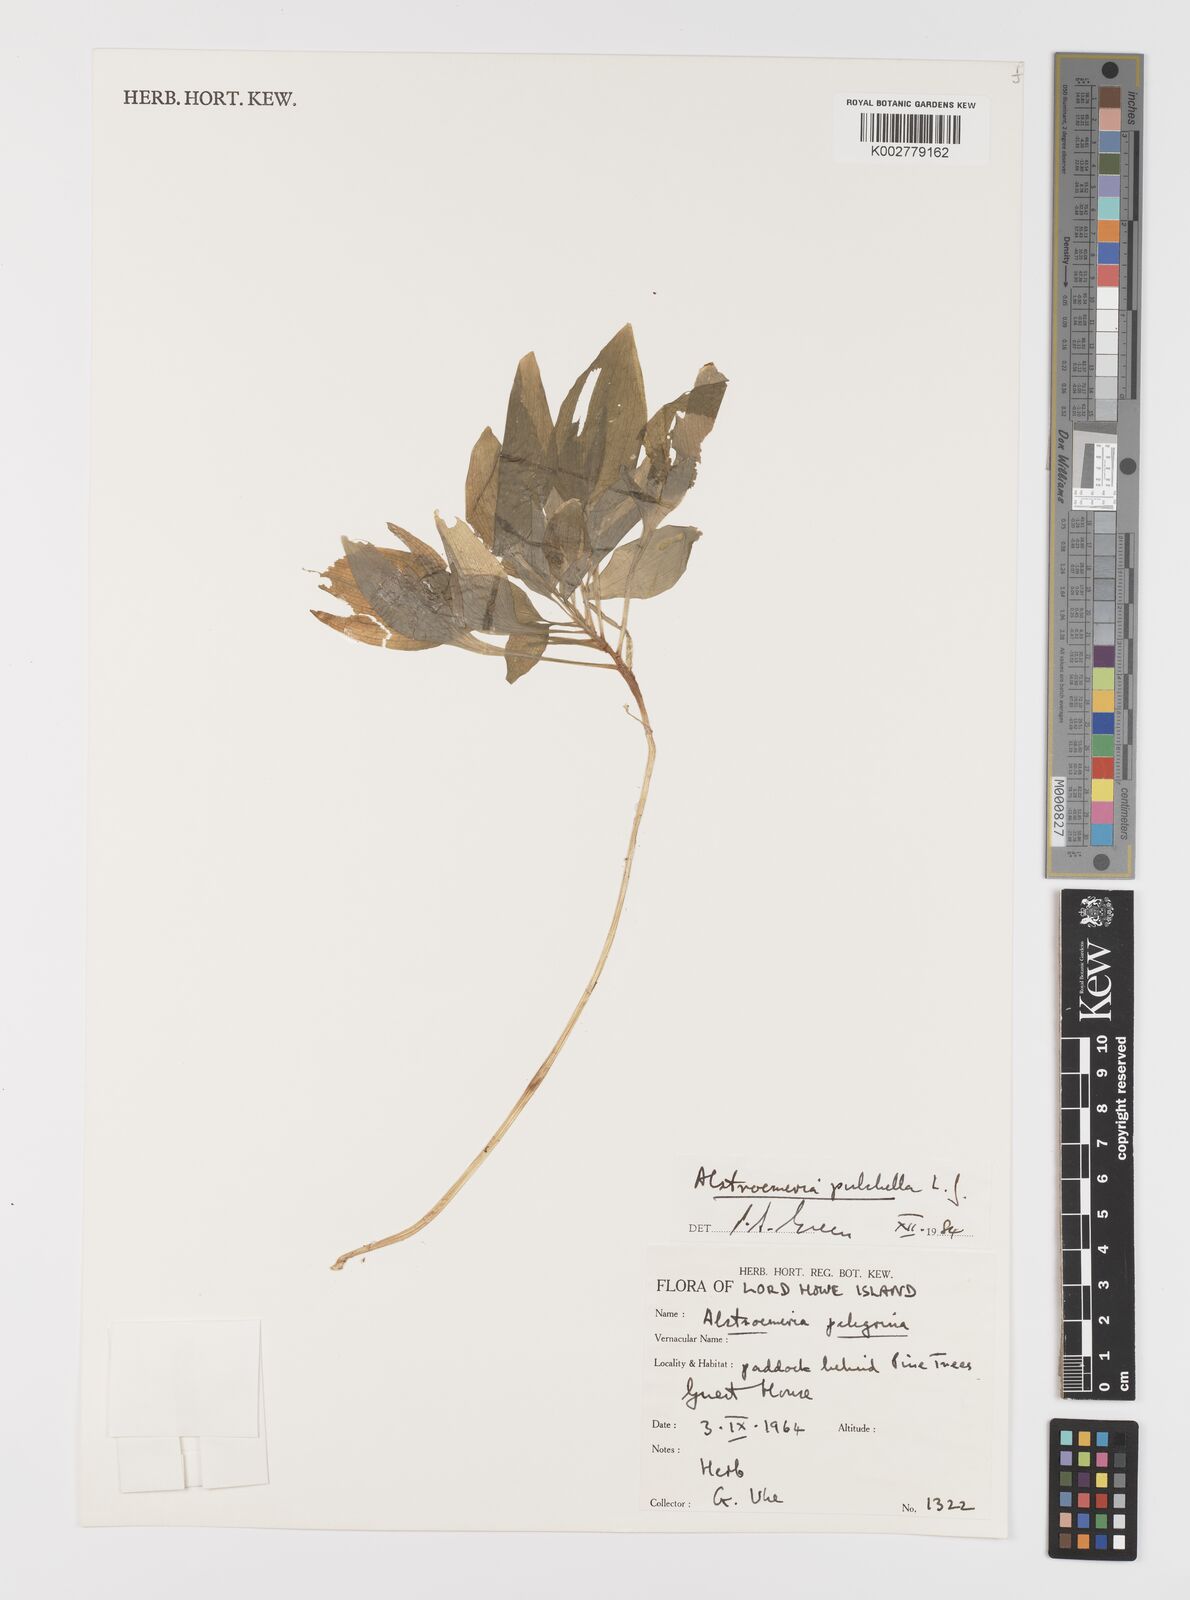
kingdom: Plantae
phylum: Tracheophyta
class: Liliopsida
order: Liliales
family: Alstroemeriaceae
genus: Alstroemeria
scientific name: Alstroemeria pelegrina
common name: Peruvian-lily
